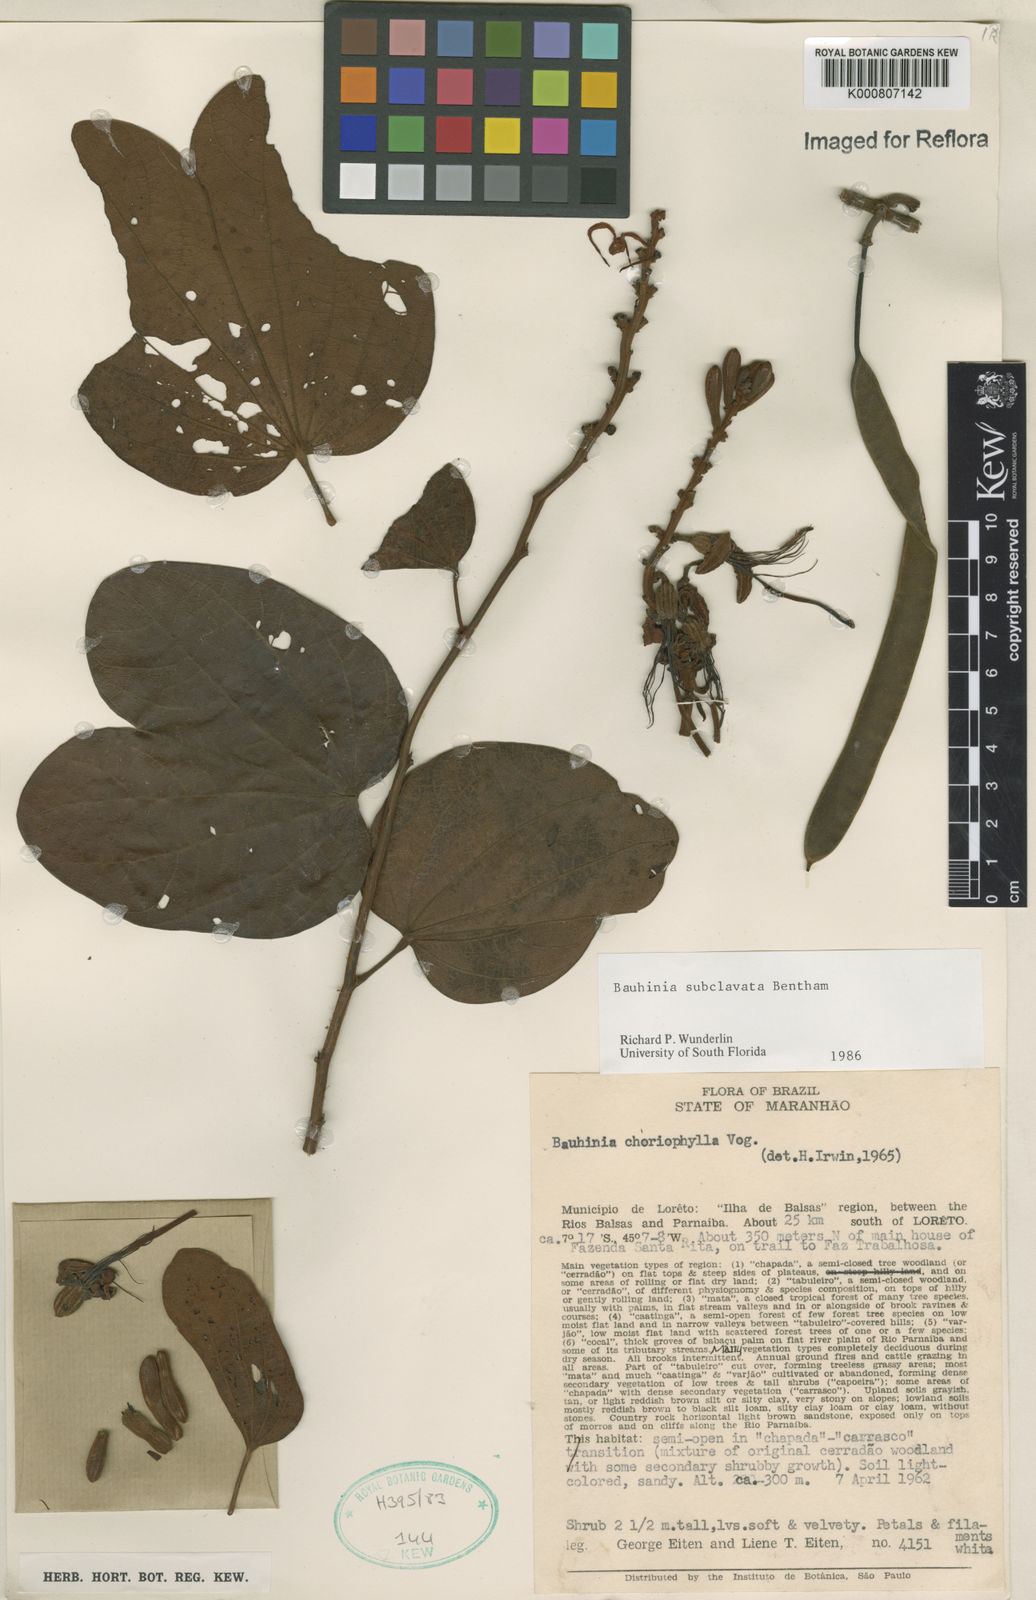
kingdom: Plantae
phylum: Tracheophyta
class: Magnoliopsida
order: Fabales
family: Fabaceae
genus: Bauhinia
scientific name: Bauhinia subclavata
